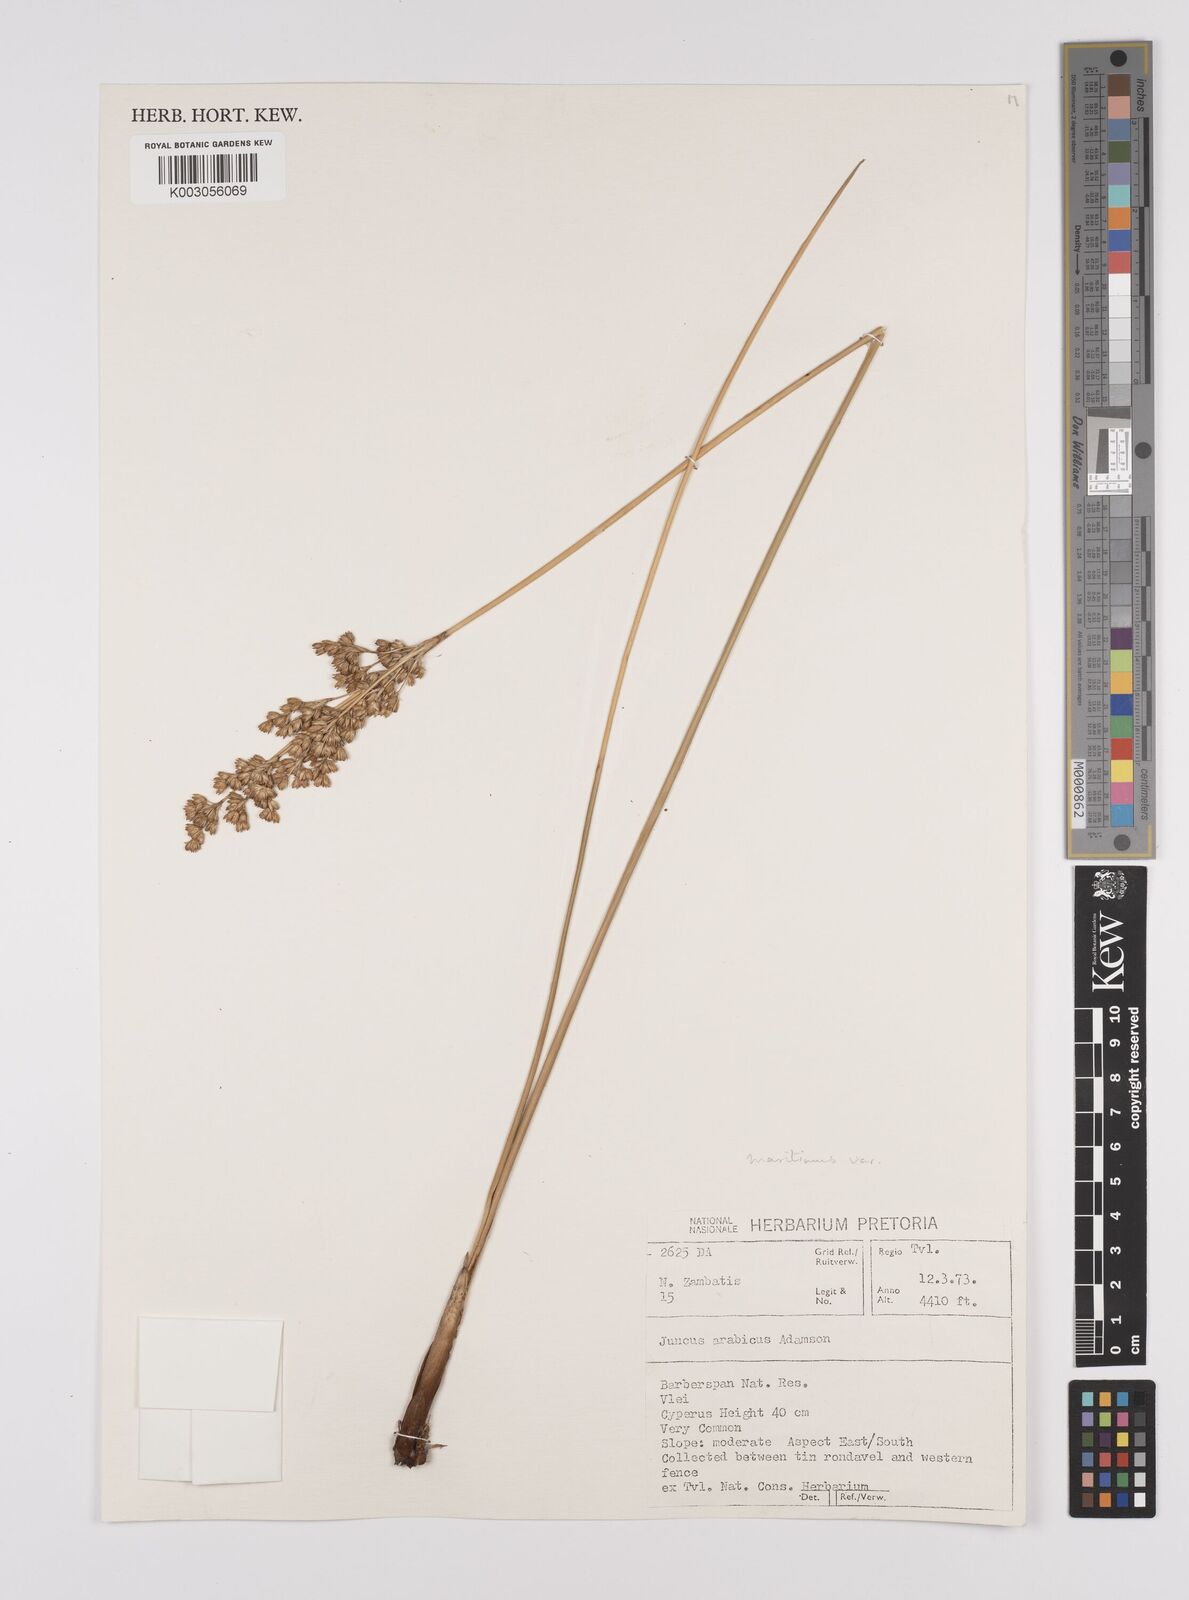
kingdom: Plantae
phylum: Tracheophyta
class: Liliopsida
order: Poales
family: Juncaceae
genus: Juncus
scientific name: Juncus rigidus
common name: Hard sea rush
